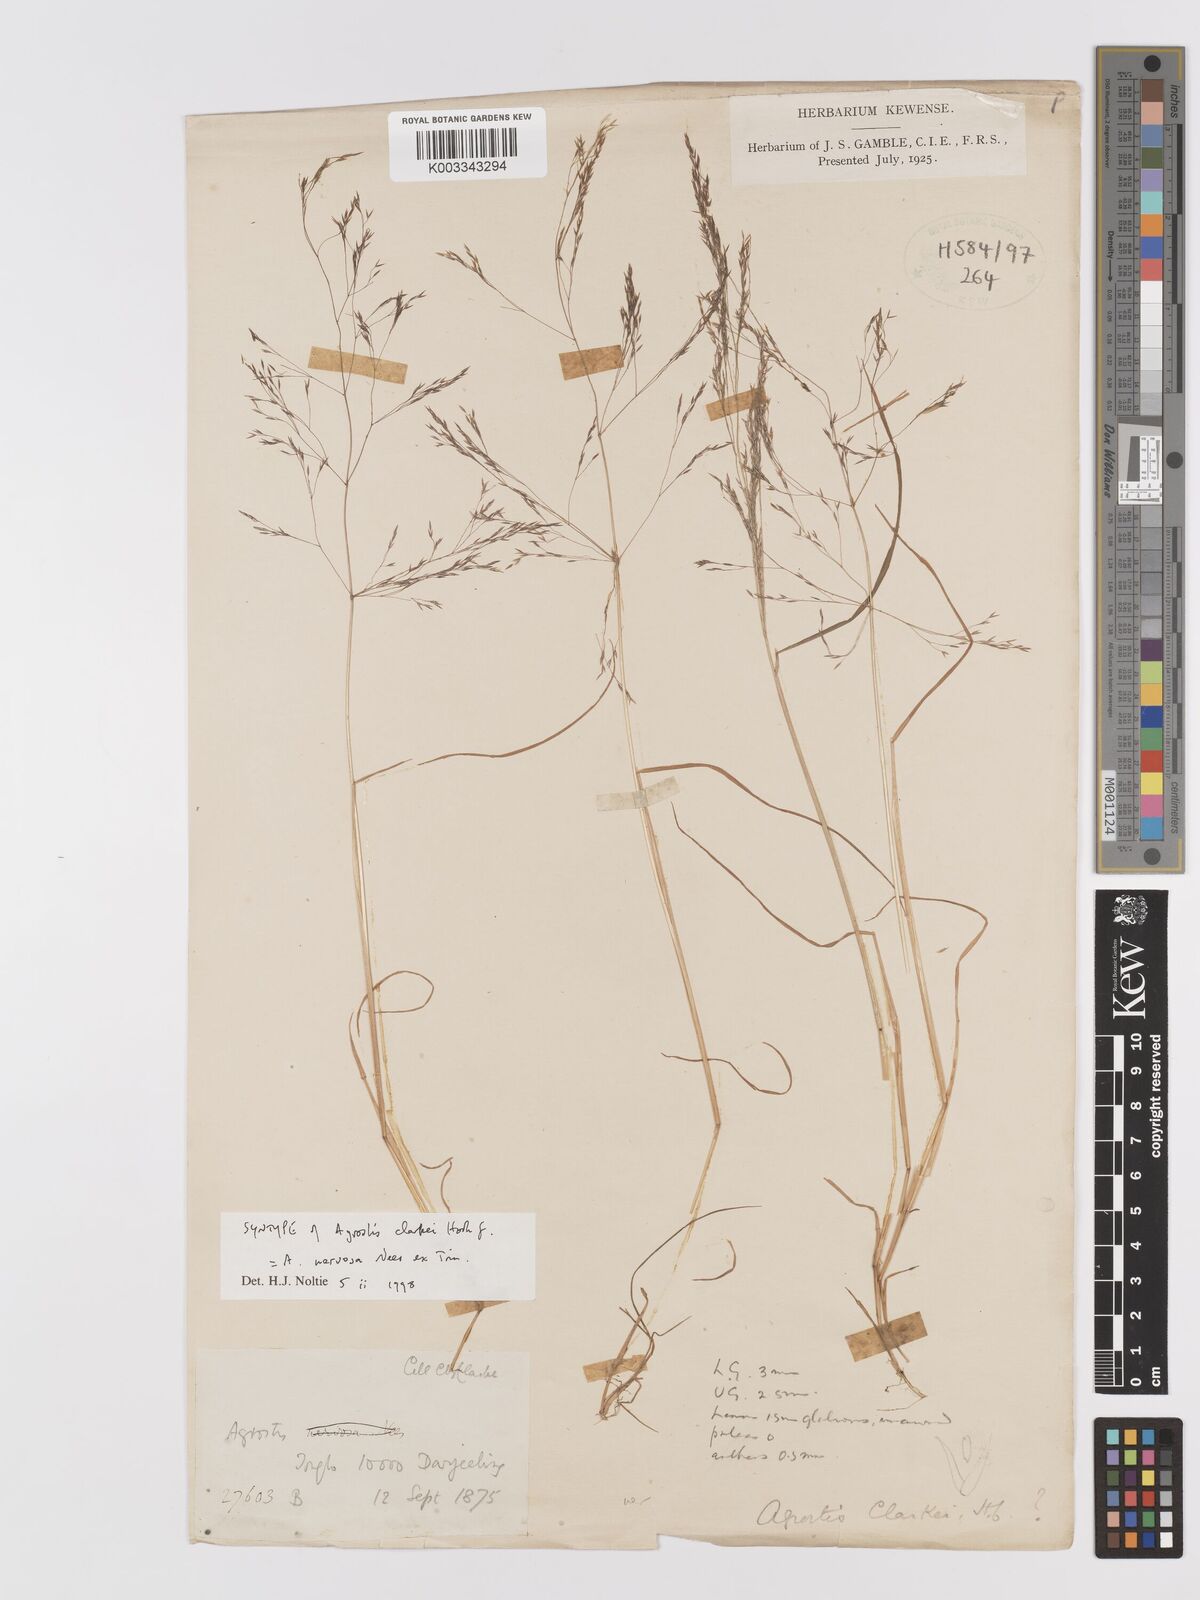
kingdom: Plantae
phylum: Tracheophyta
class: Liliopsida
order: Poales
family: Poaceae
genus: Agrostis
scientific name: Agrostis nervosa
